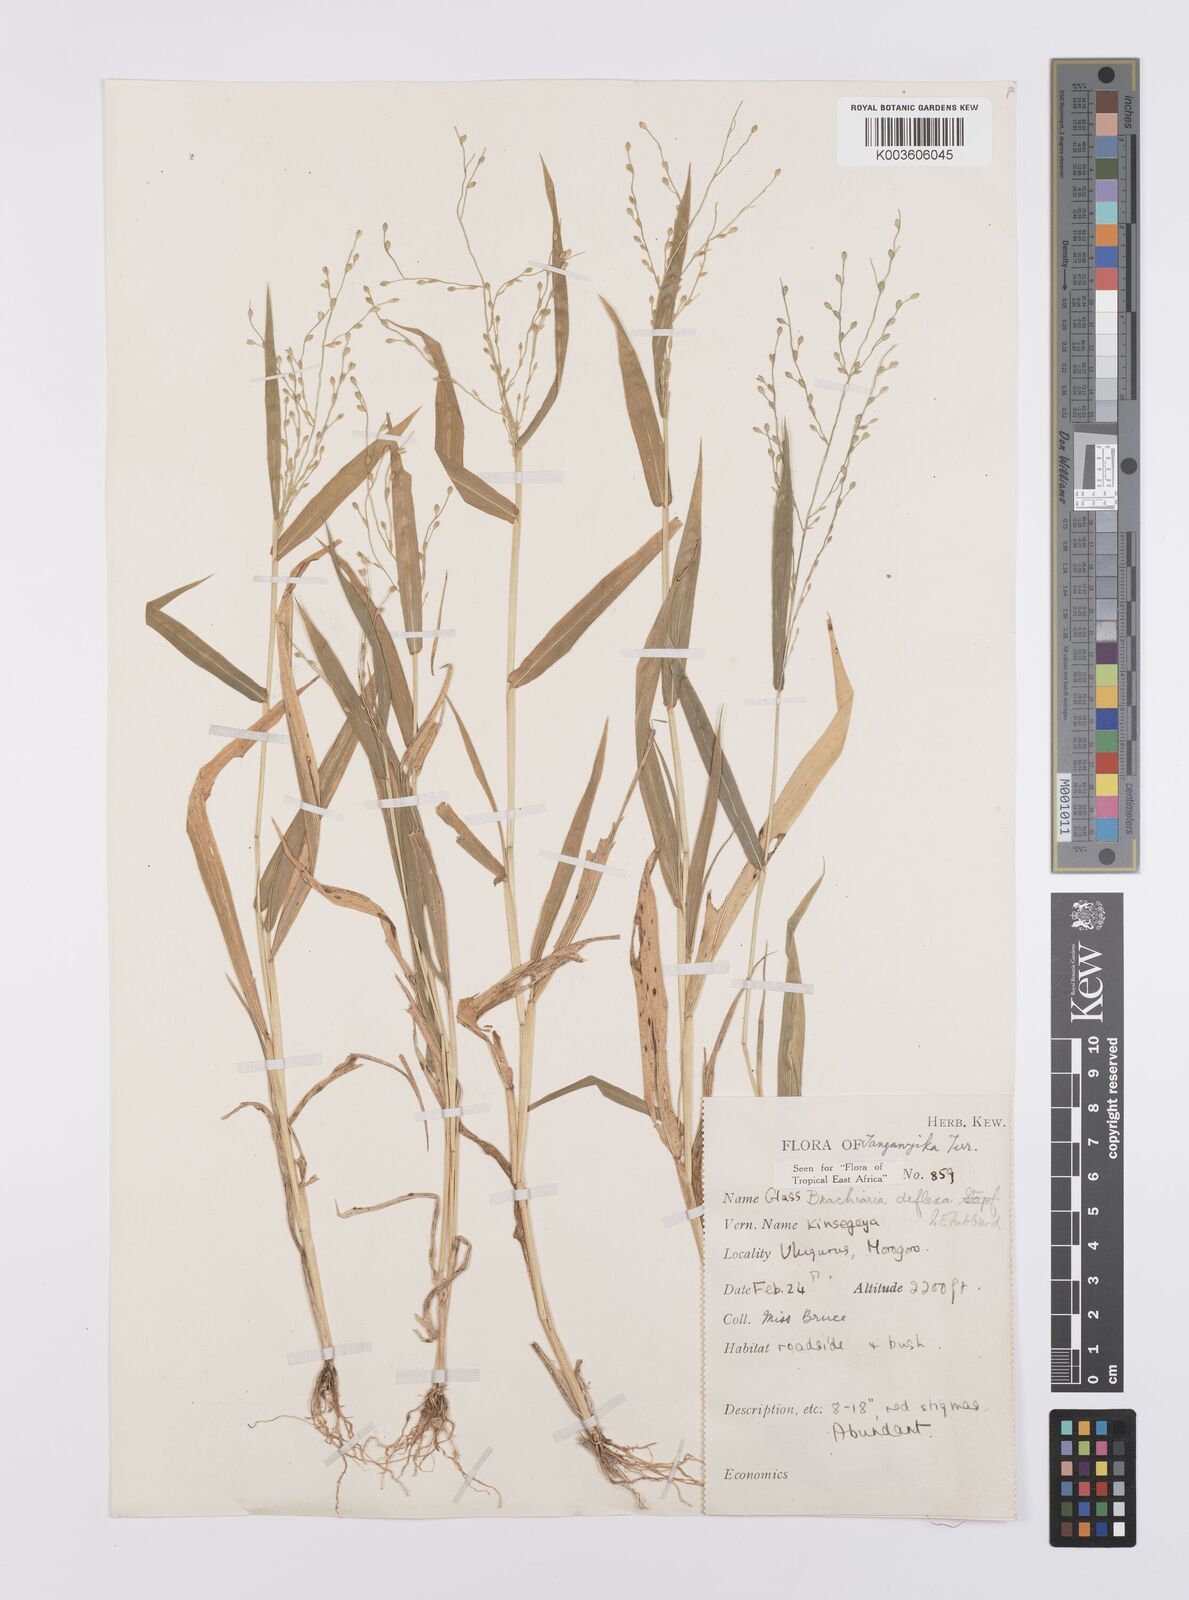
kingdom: Plantae
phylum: Tracheophyta
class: Liliopsida
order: Poales
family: Poaceae
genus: Urochloa
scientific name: Urochloa deflexa
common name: Guinea millet
